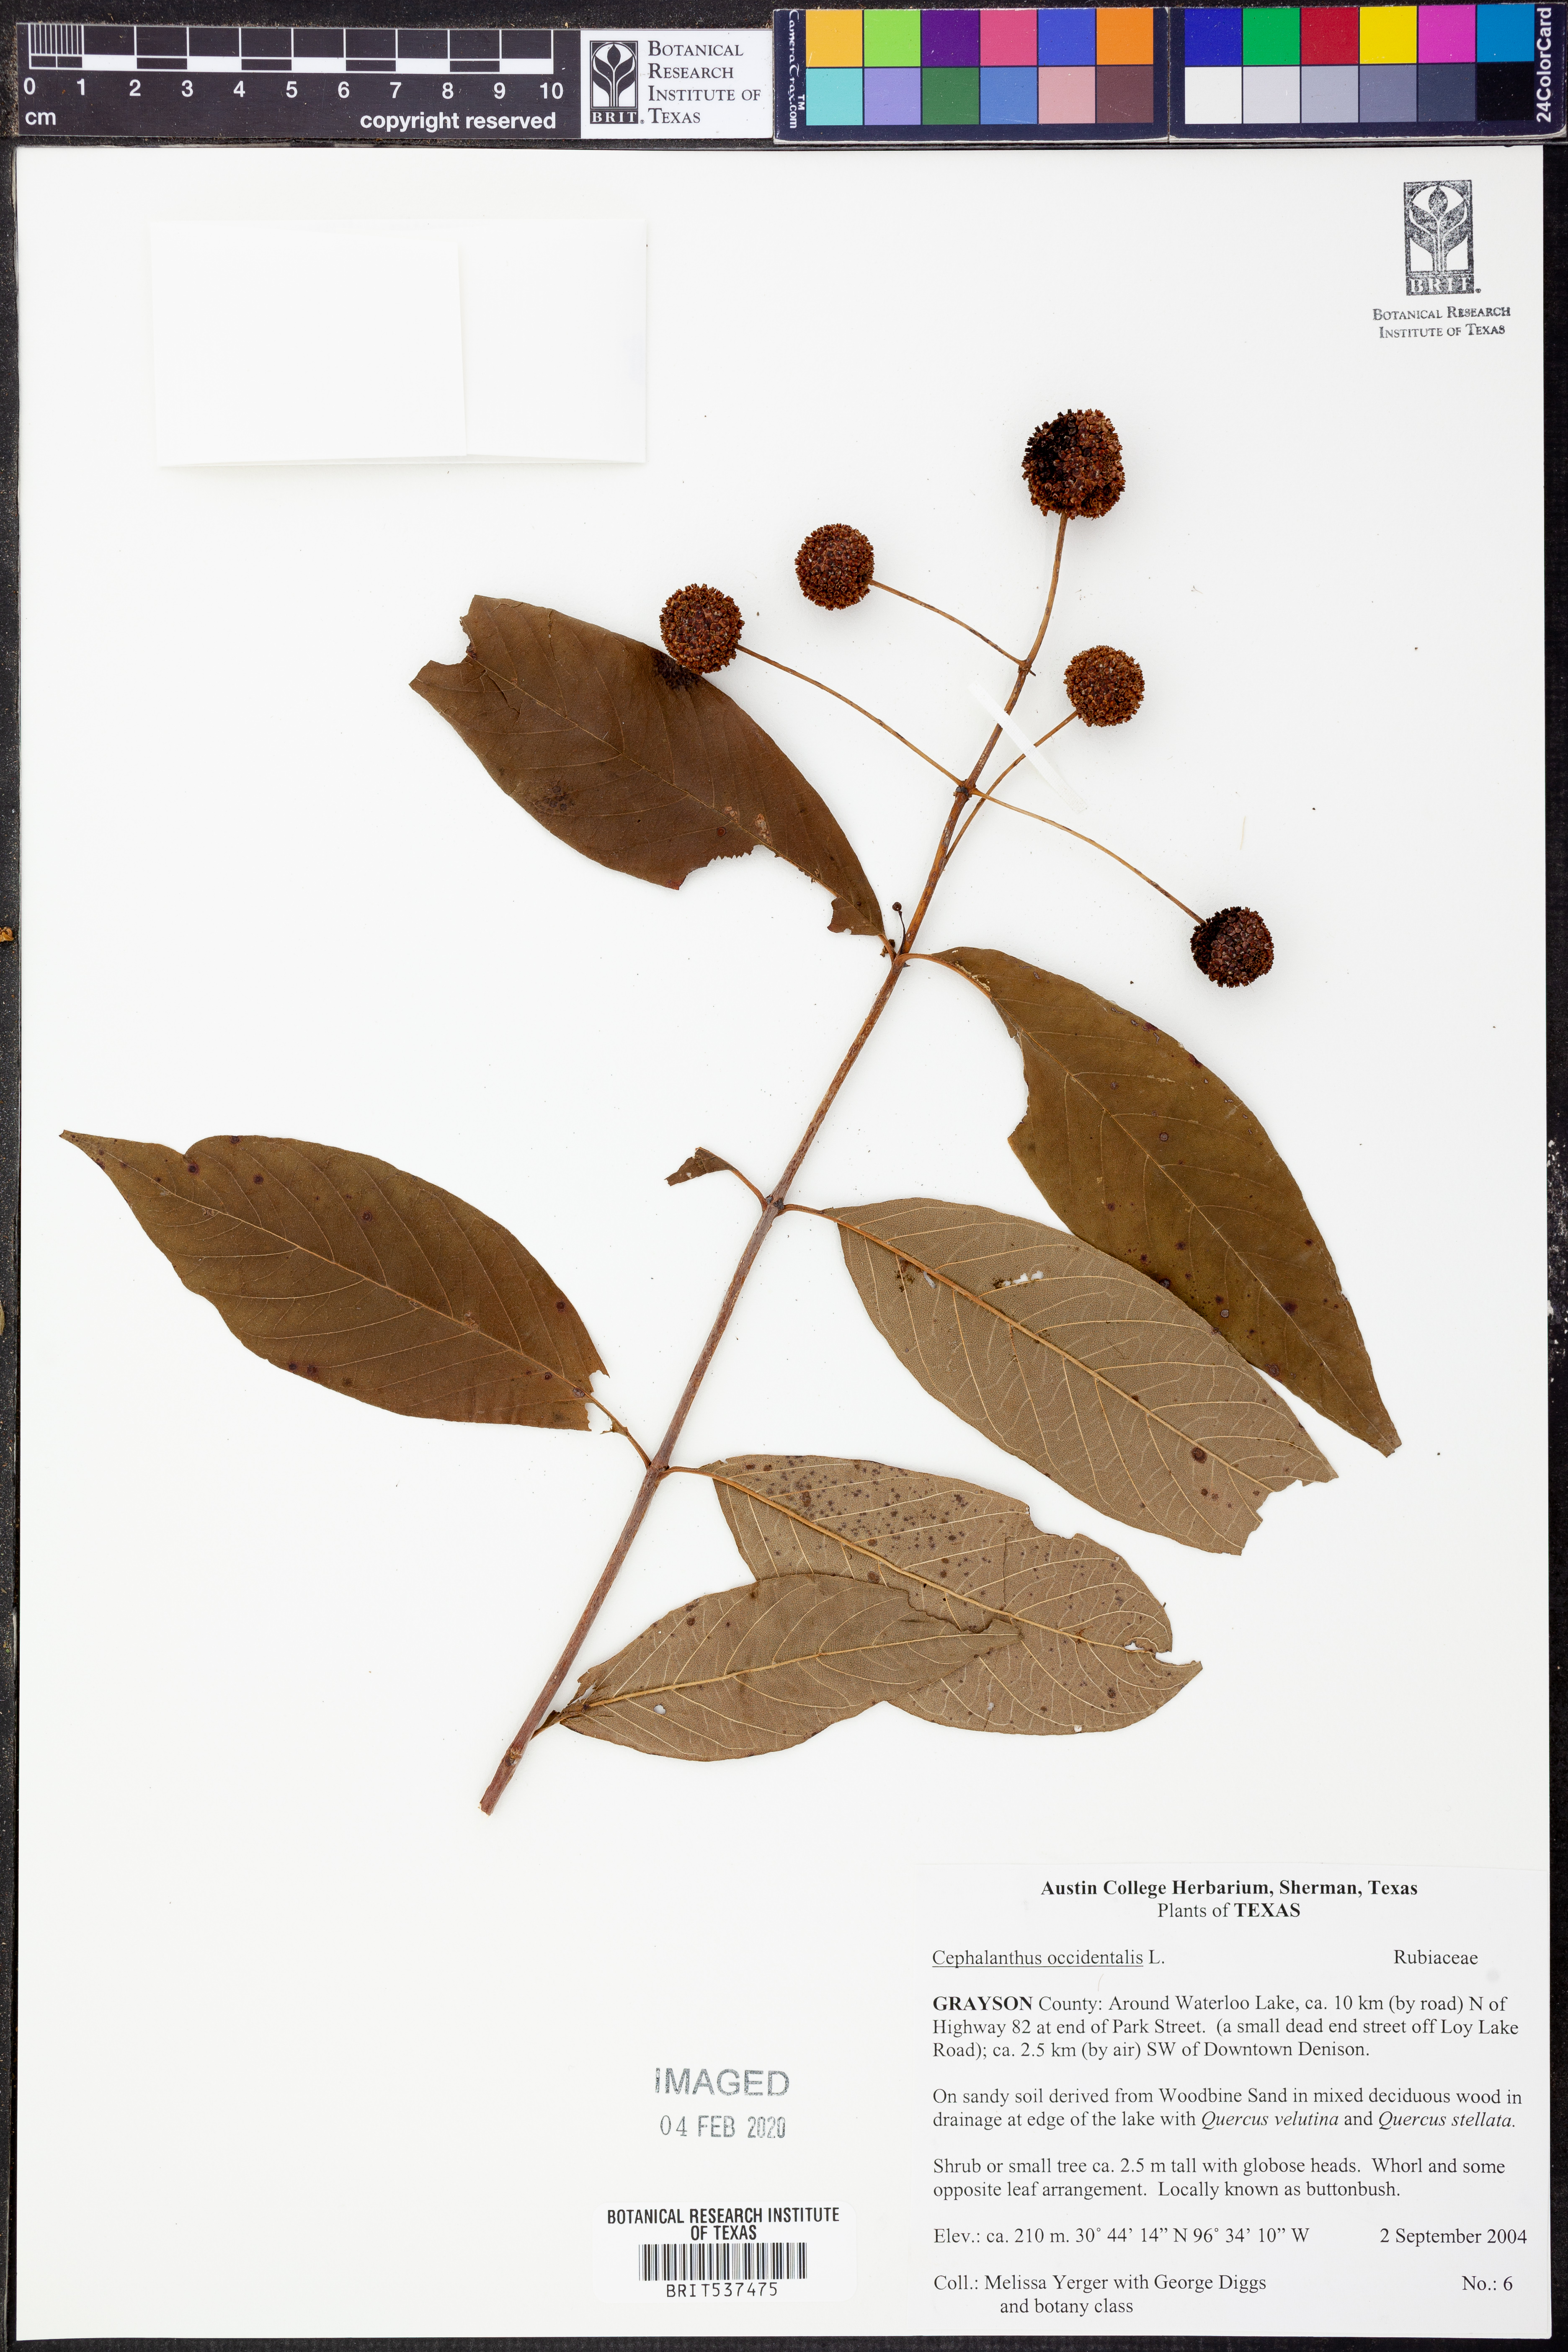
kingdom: Plantae
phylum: Tracheophyta
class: Magnoliopsida
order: Gentianales
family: Rubiaceae
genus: Cephalanthus
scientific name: Cephalanthus occidentalis
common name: Button-willow
